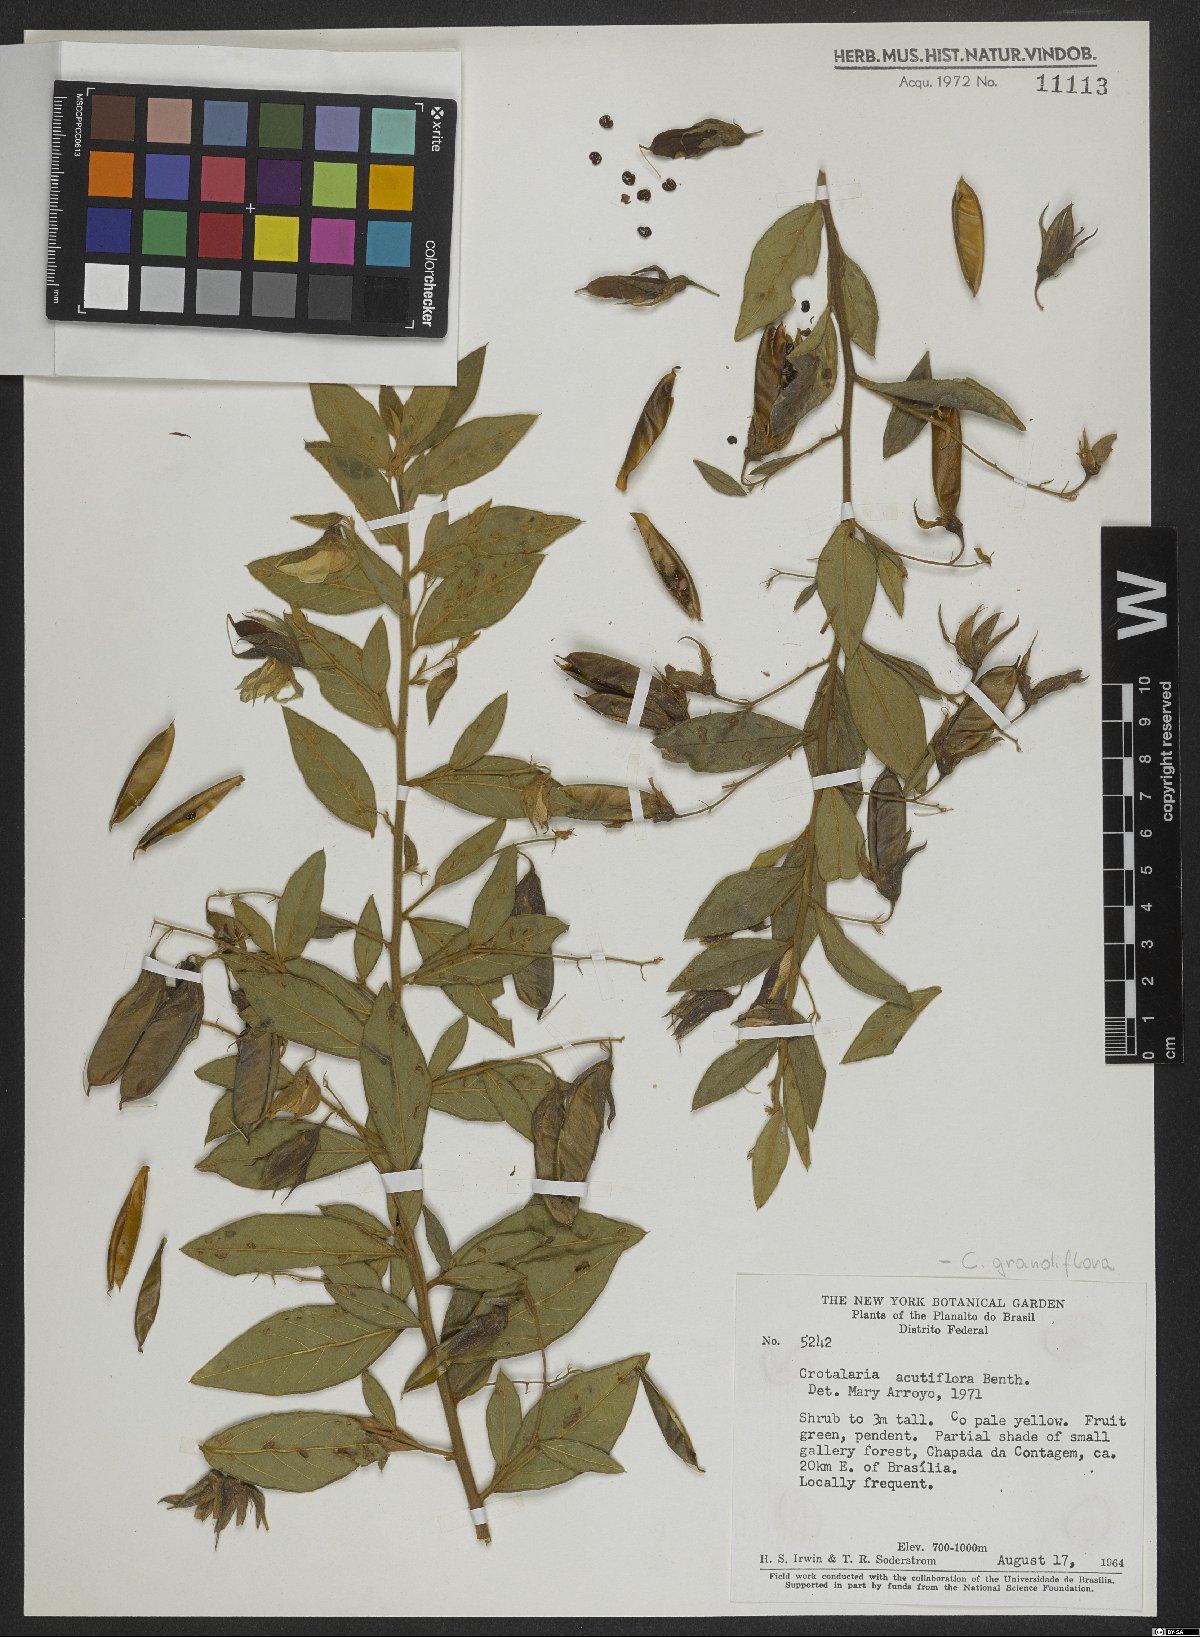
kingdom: Plantae
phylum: Tracheophyta
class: Magnoliopsida
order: Fabales
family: Fabaceae
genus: Crotalaria
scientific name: Crotalaria grandiflora
